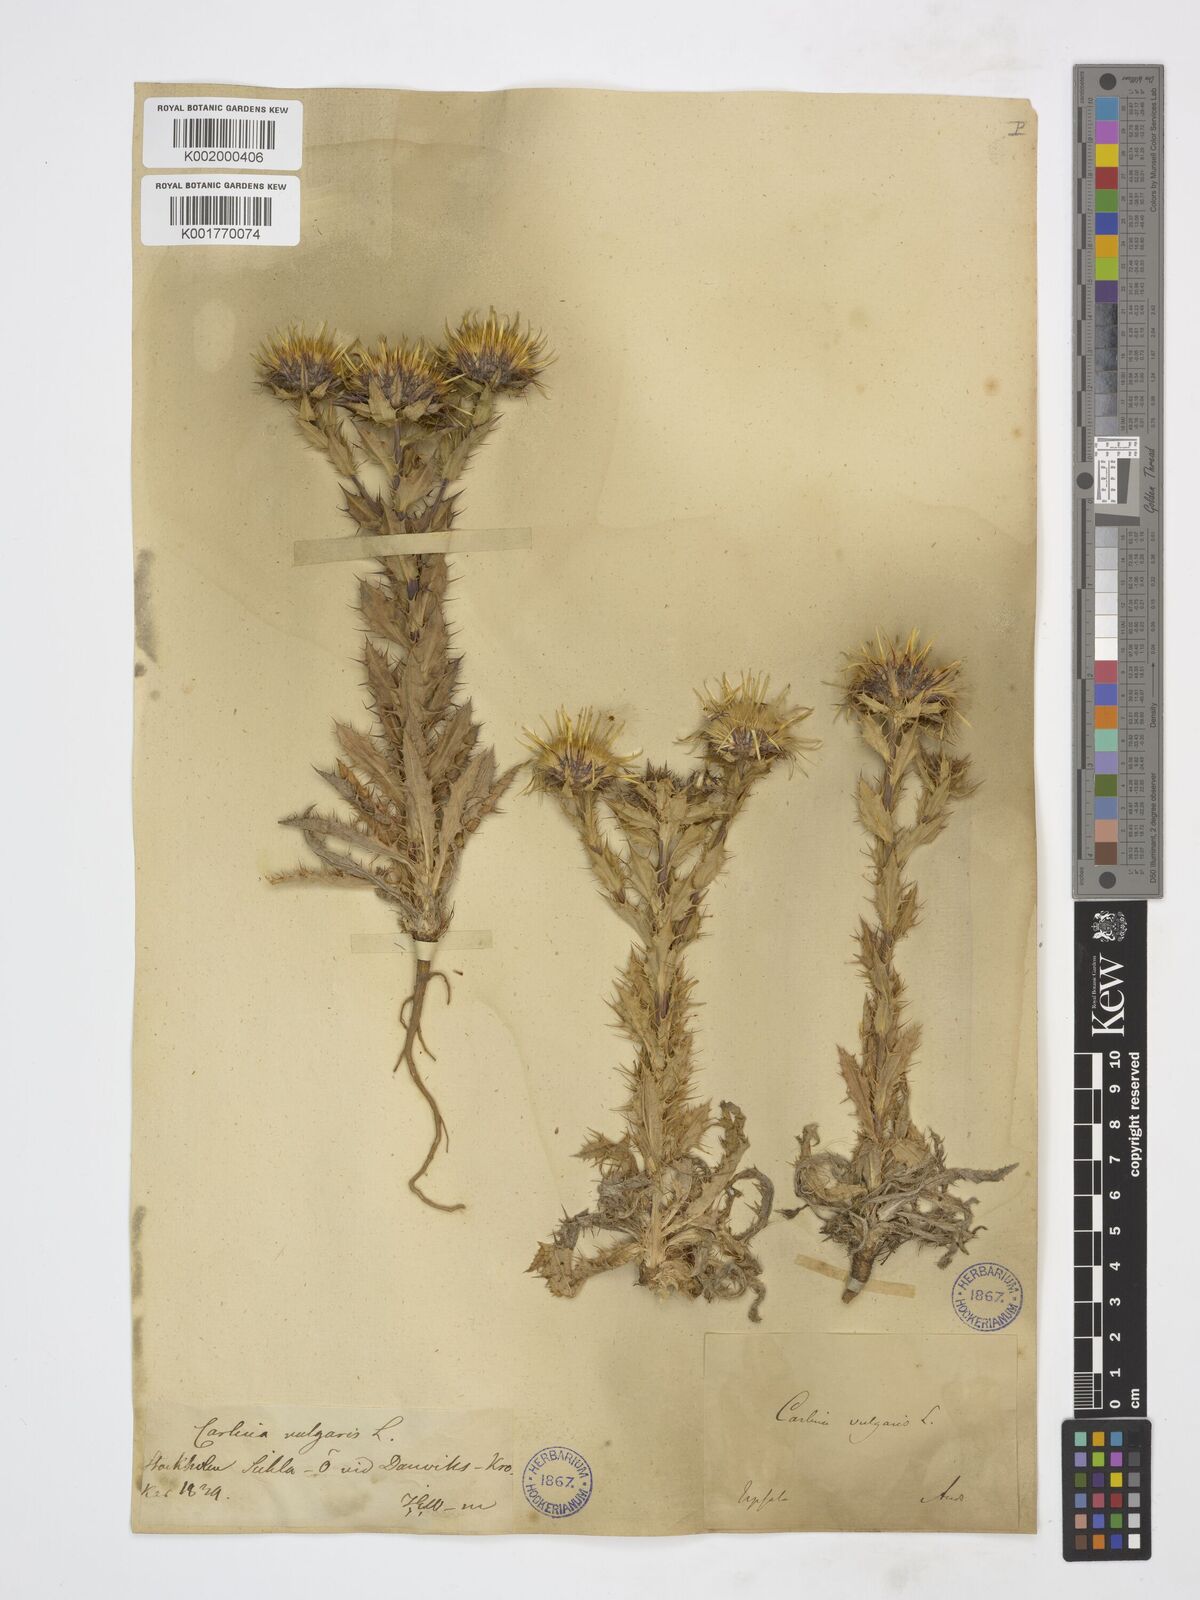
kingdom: Plantae
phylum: Tracheophyta
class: Magnoliopsida
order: Asterales
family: Asteraceae
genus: Carlina
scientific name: Carlina vulgaris
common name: Carline thistle
